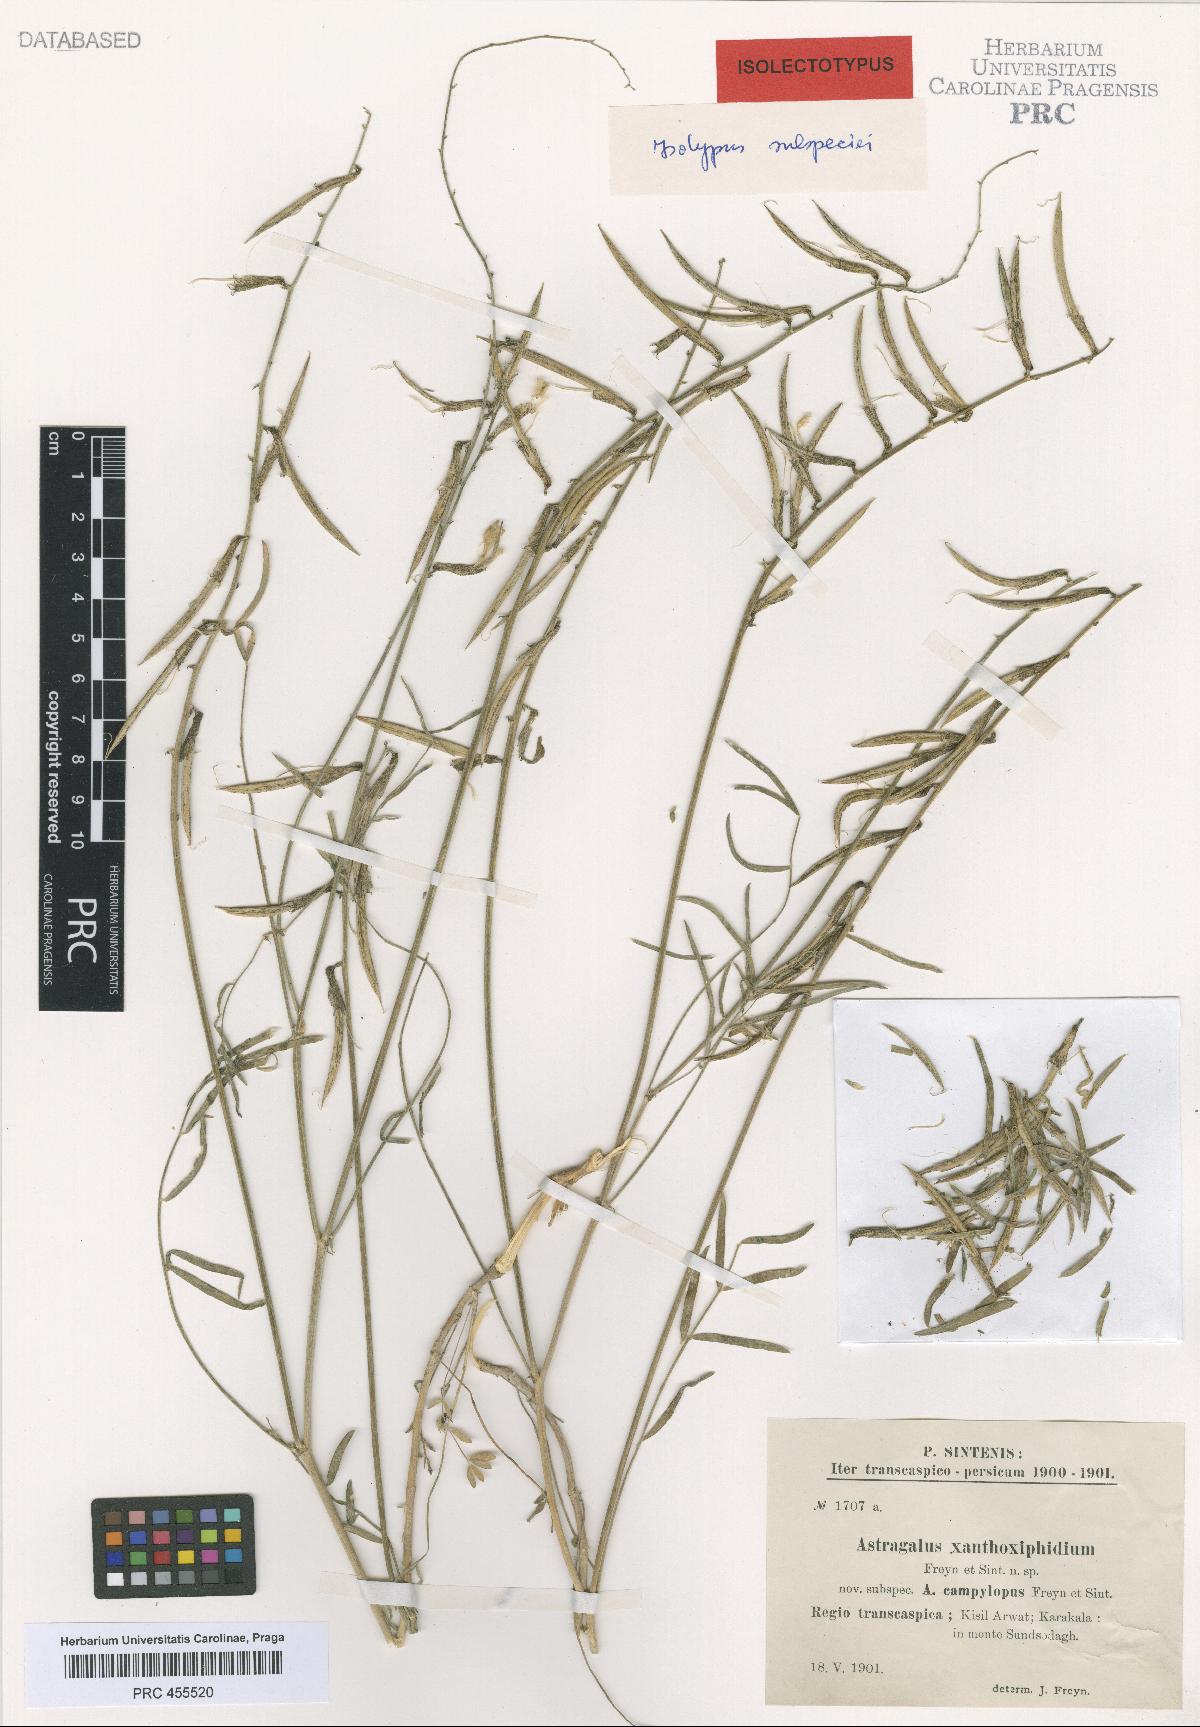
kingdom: Plantae
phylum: Tracheophyta
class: Magnoliopsida
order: Fabales
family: Fabaceae
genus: Astragalus
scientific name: Astragalus juratzkanus
